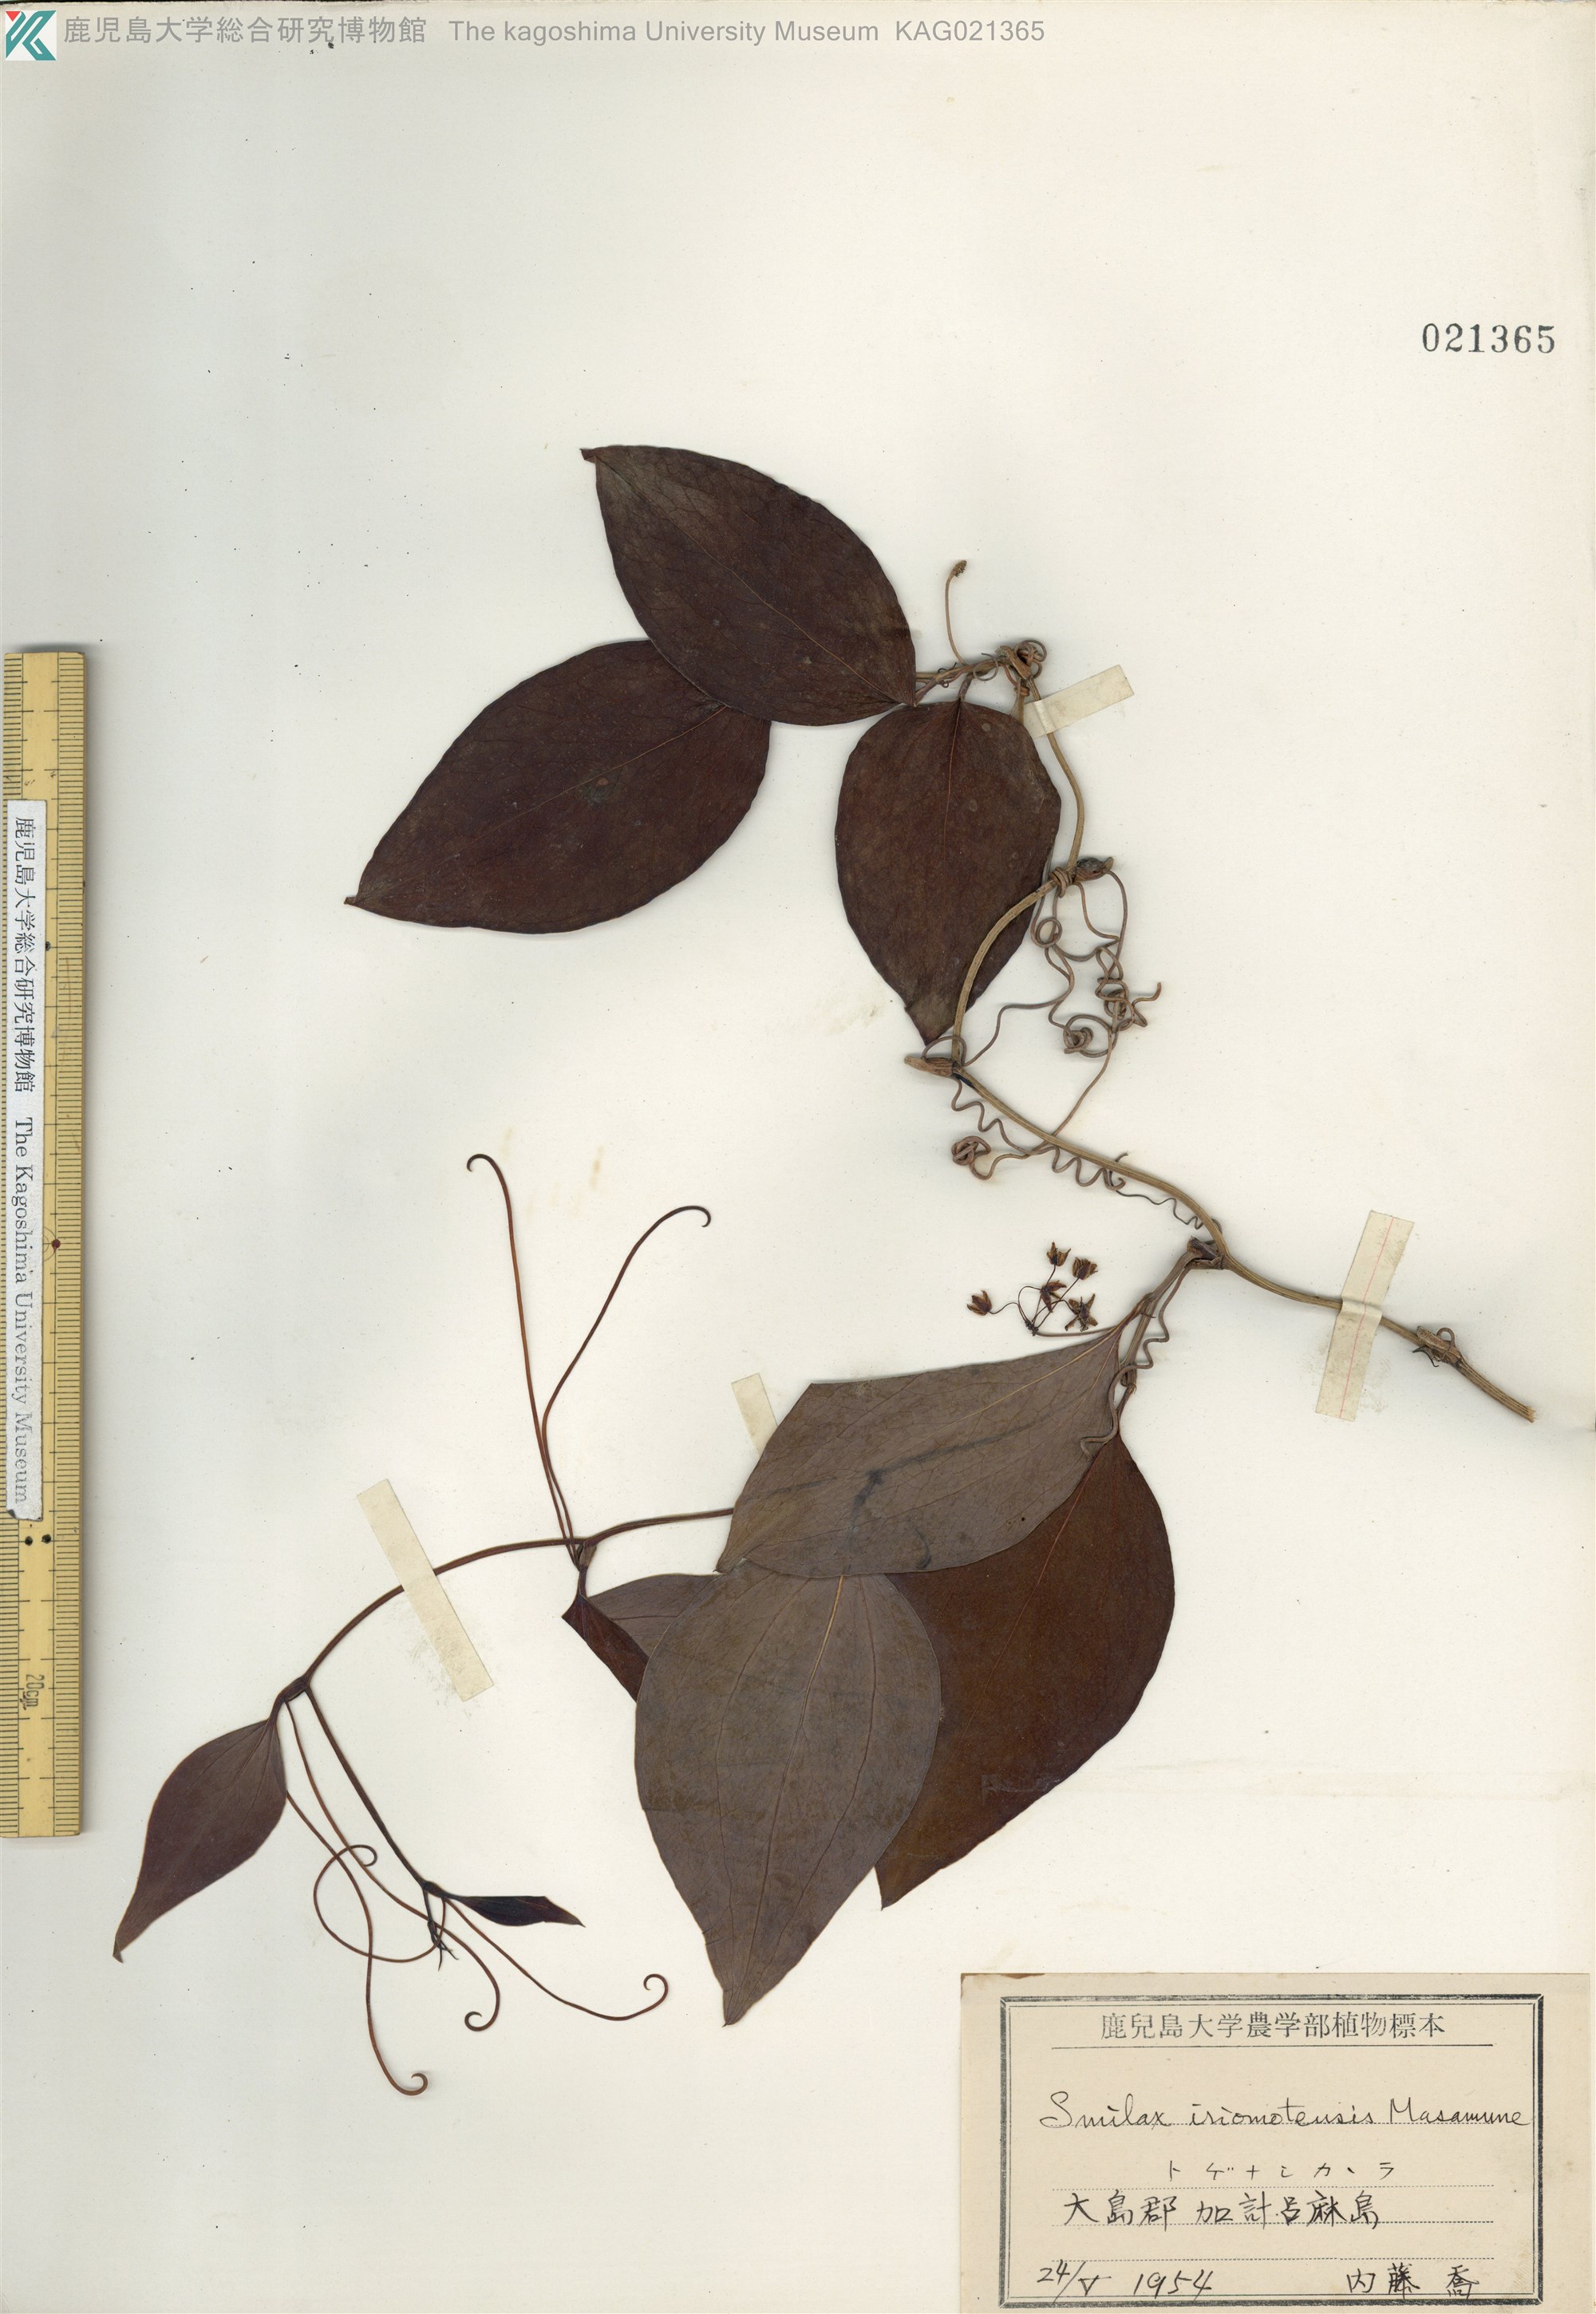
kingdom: Plantae
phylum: Tracheophyta
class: Liliopsida
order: Liliales
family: Smilacaceae
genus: Smilax
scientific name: Smilax sebeana
